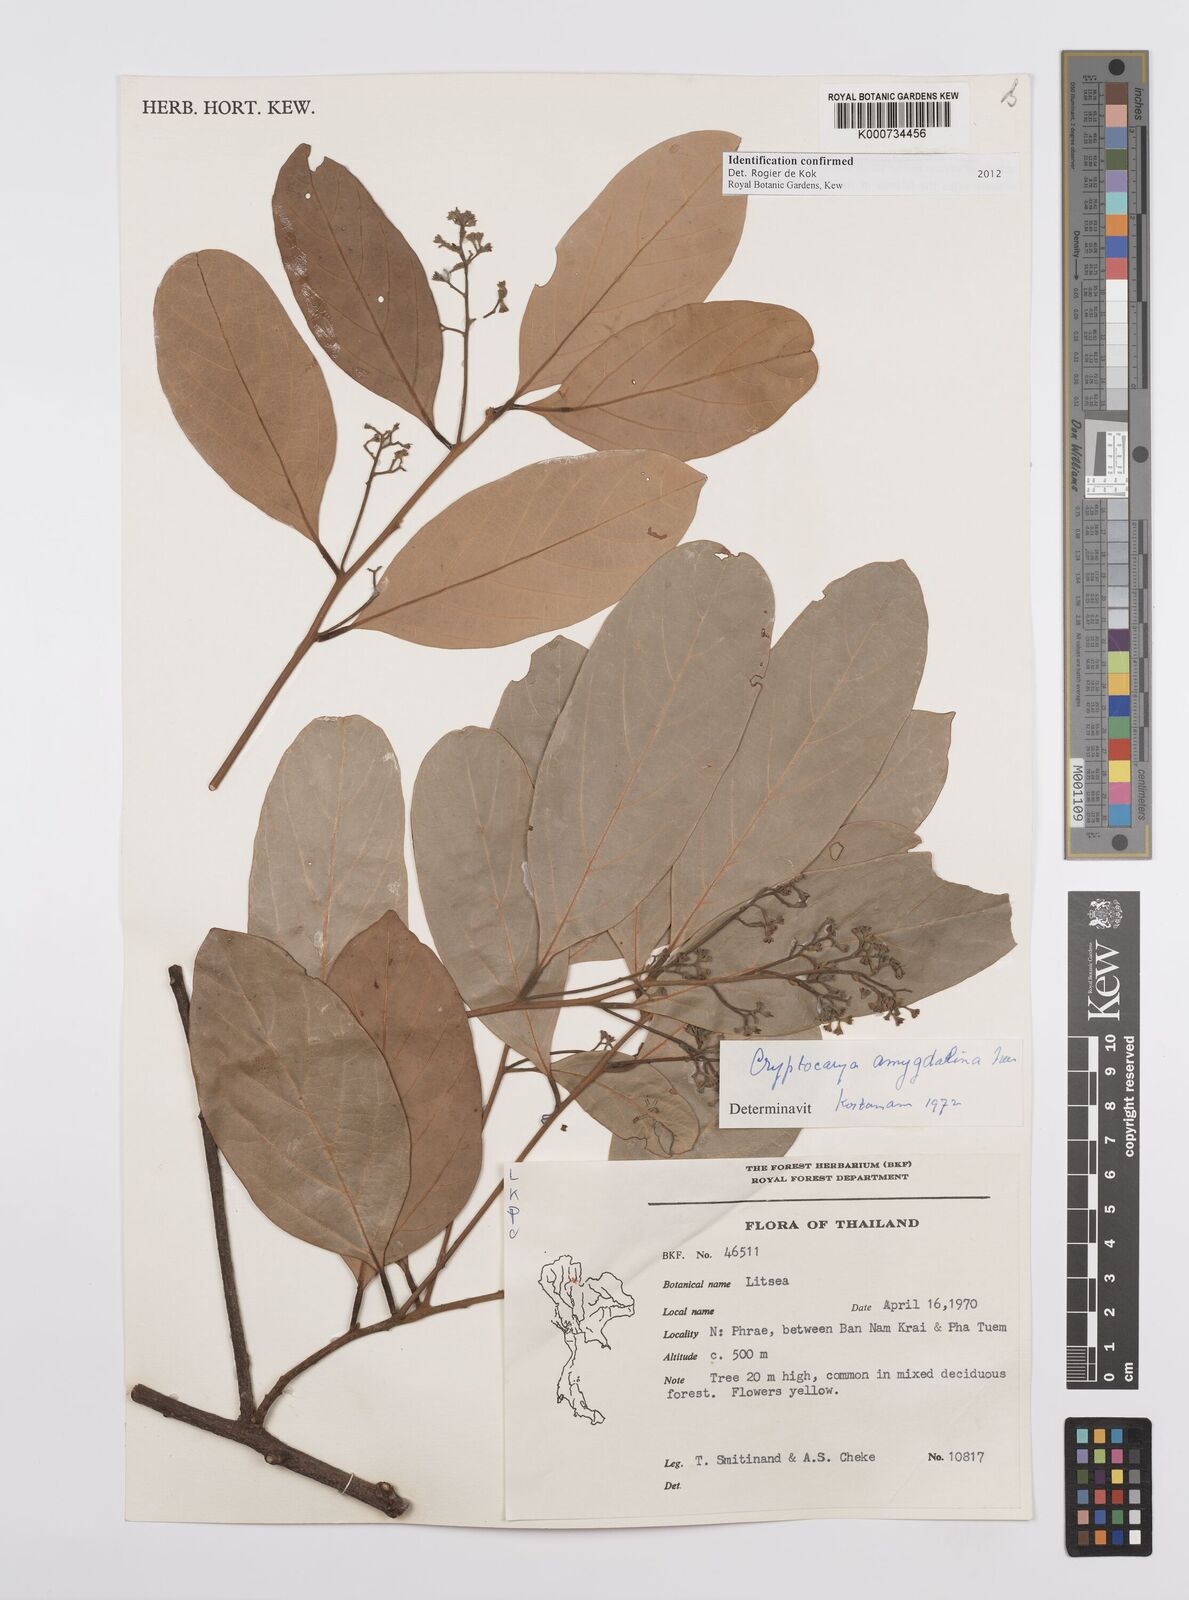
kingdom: Plantae
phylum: Tracheophyta
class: Magnoliopsida
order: Laurales
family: Lauraceae
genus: Cryptocarya
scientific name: Cryptocarya amygdalina
